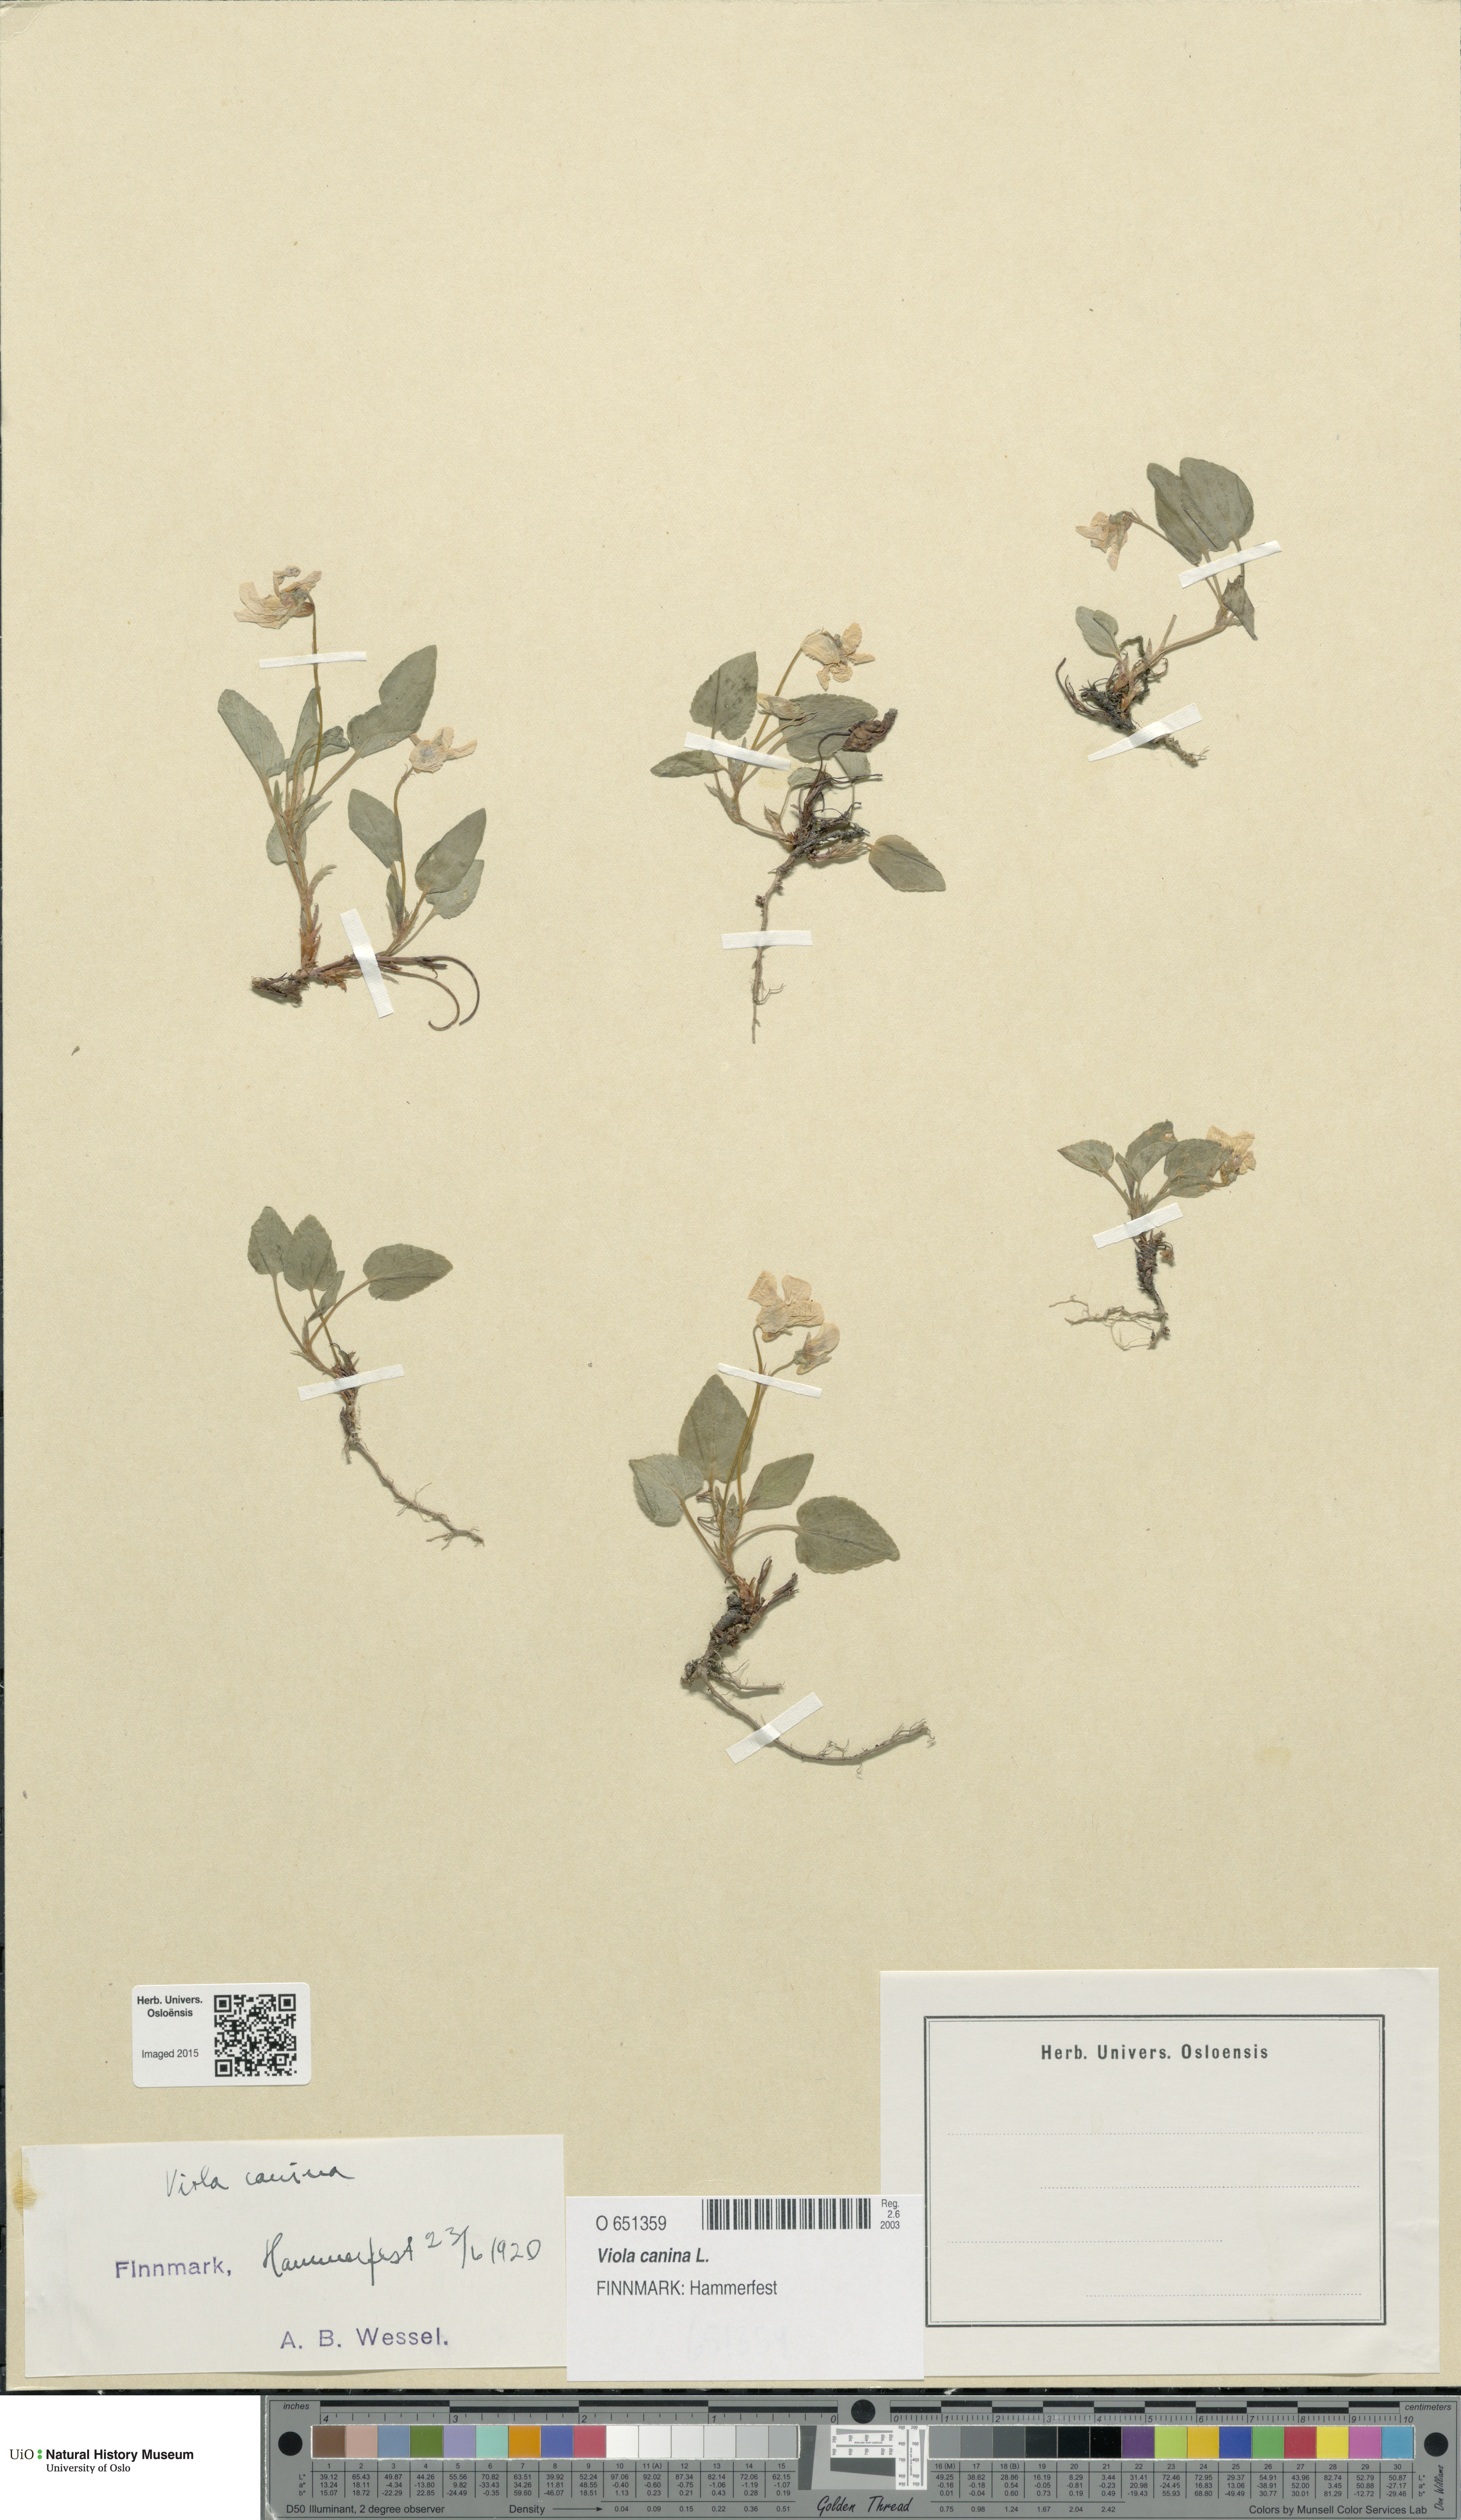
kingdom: Plantae
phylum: Tracheophyta
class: Magnoliopsida
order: Malpighiales
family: Violaceae
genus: Viola
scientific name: Viola canina
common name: Heath dog-violet
